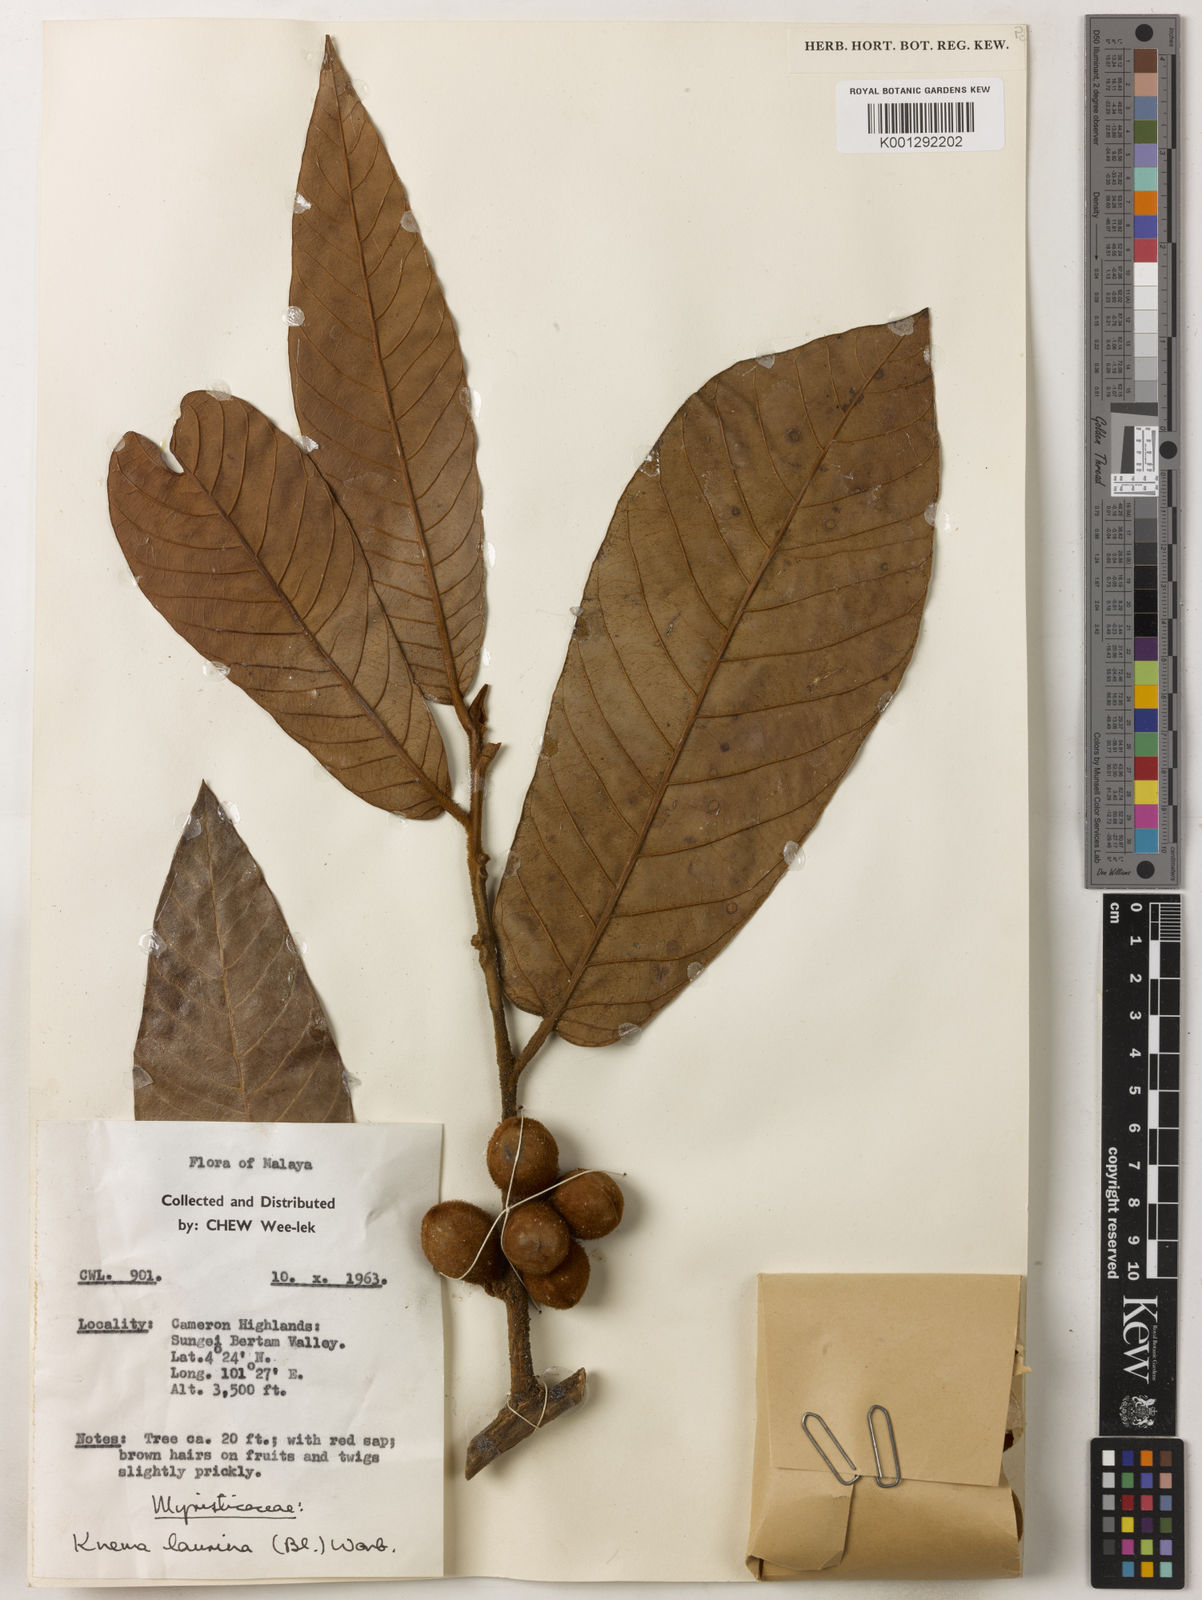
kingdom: Plantae
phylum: Tracheophyta
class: Magnoliopsida
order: Magnoliales
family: Myristicaceae
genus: Knema
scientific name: Knema laurina
